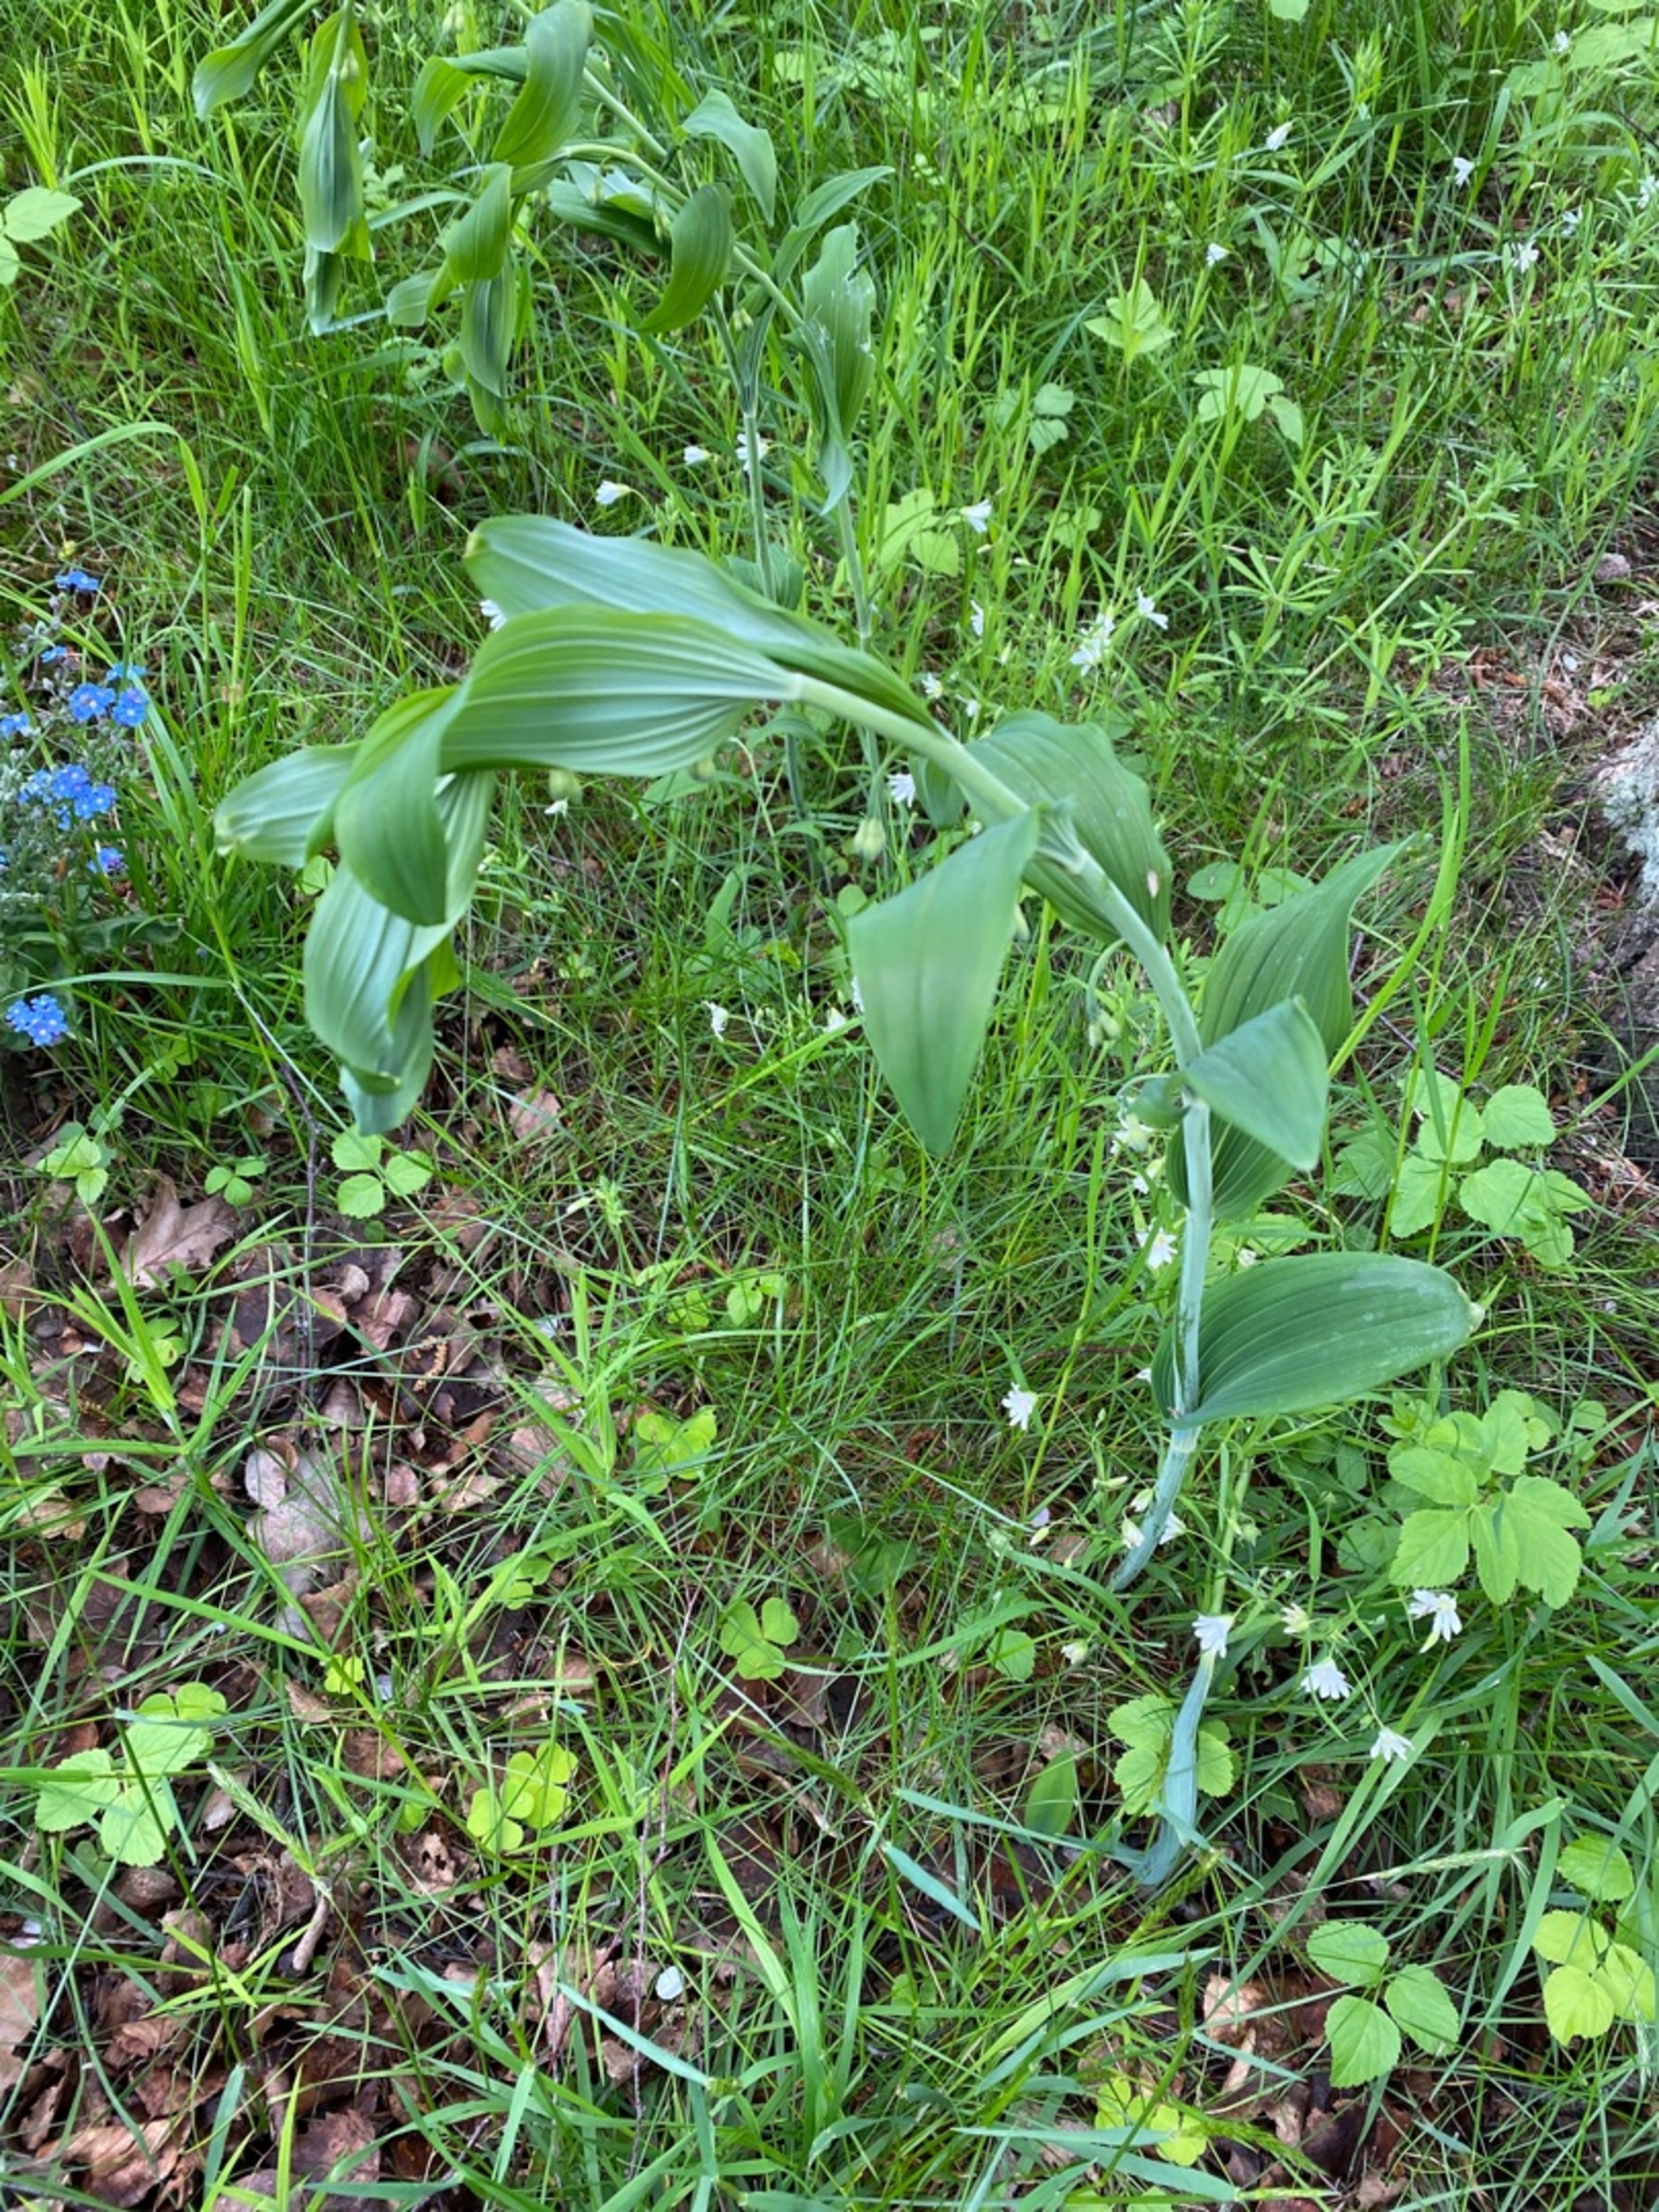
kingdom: Plantae
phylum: Tracheophyta
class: Liliopsida
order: Asparagales
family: Asparagaceae
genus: Polygonatum
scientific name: Polygonatum multiflorum
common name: Stor konval
